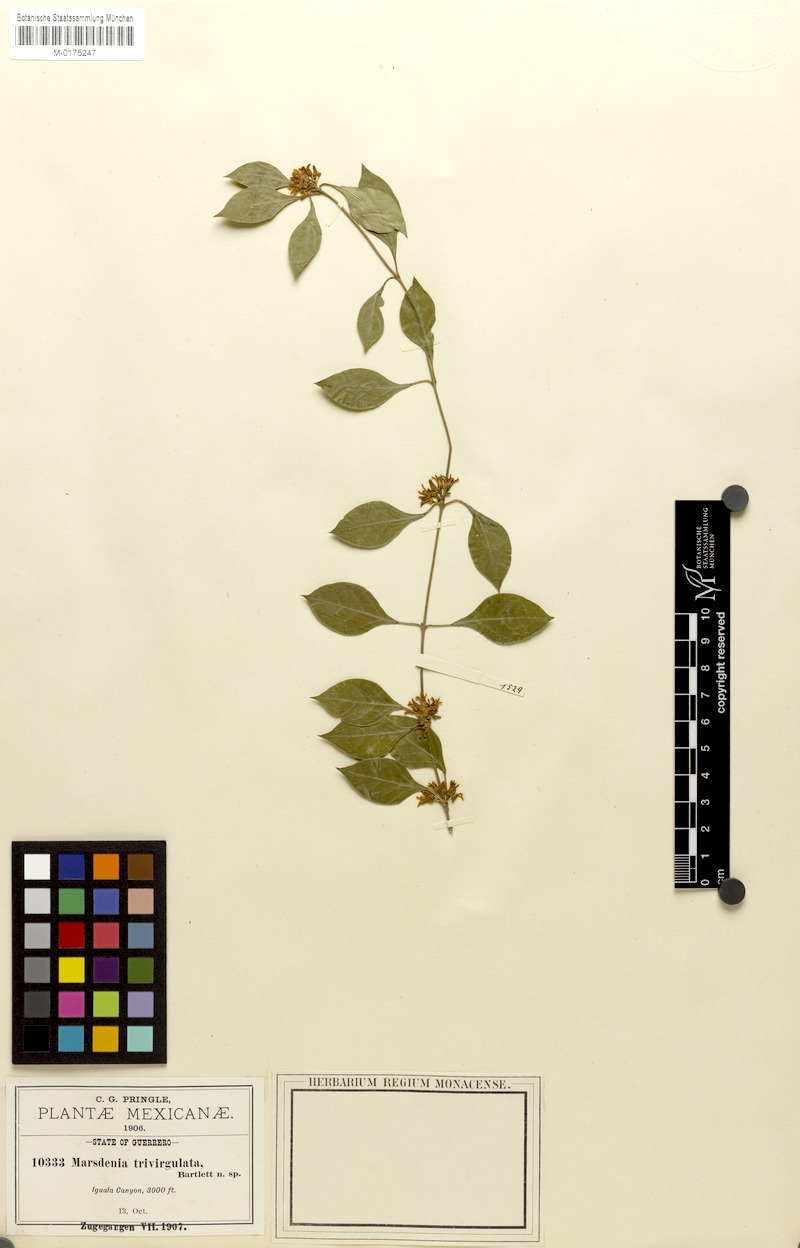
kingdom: Plantae
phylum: Tracheophyta
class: Magnoliopsida
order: Gentianales
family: Apocynaceae
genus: Ruehssia
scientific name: Ruehssia trivirgulata
